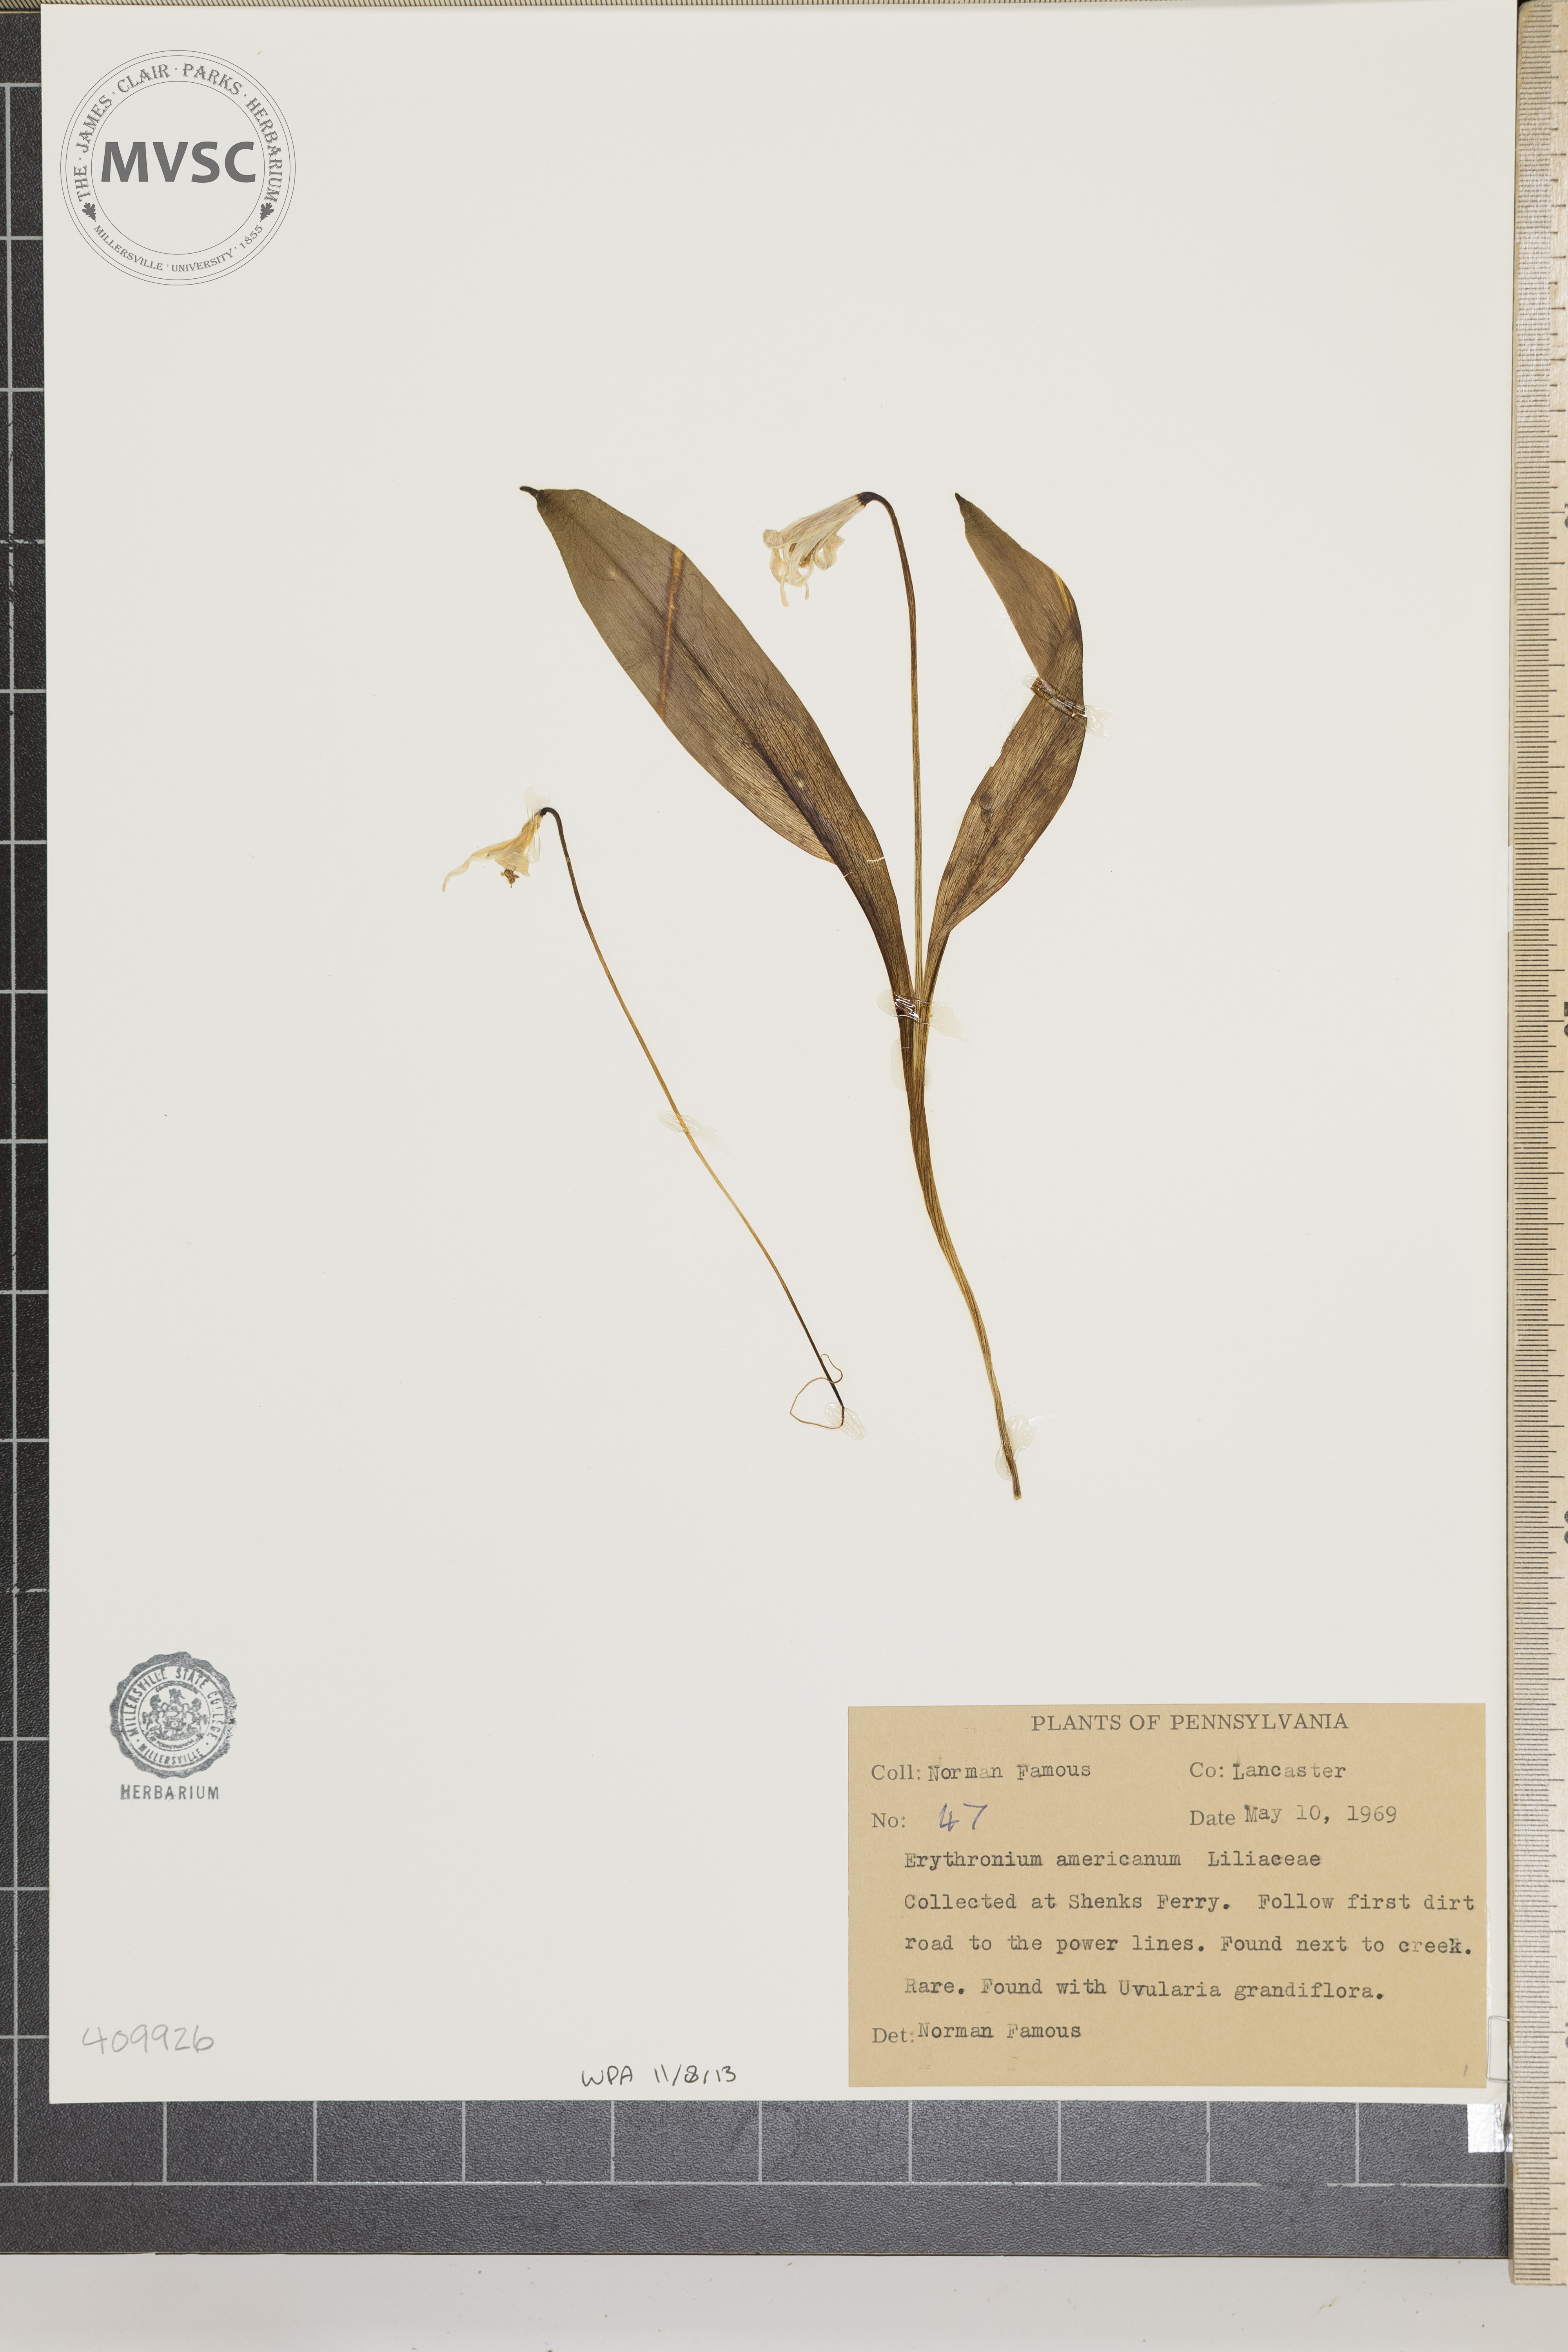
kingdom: Plantae
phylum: Tracheophyta
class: Liliopsida
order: Liliales
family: Liliaceae
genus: Erythronium
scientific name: Erythronium americanum
